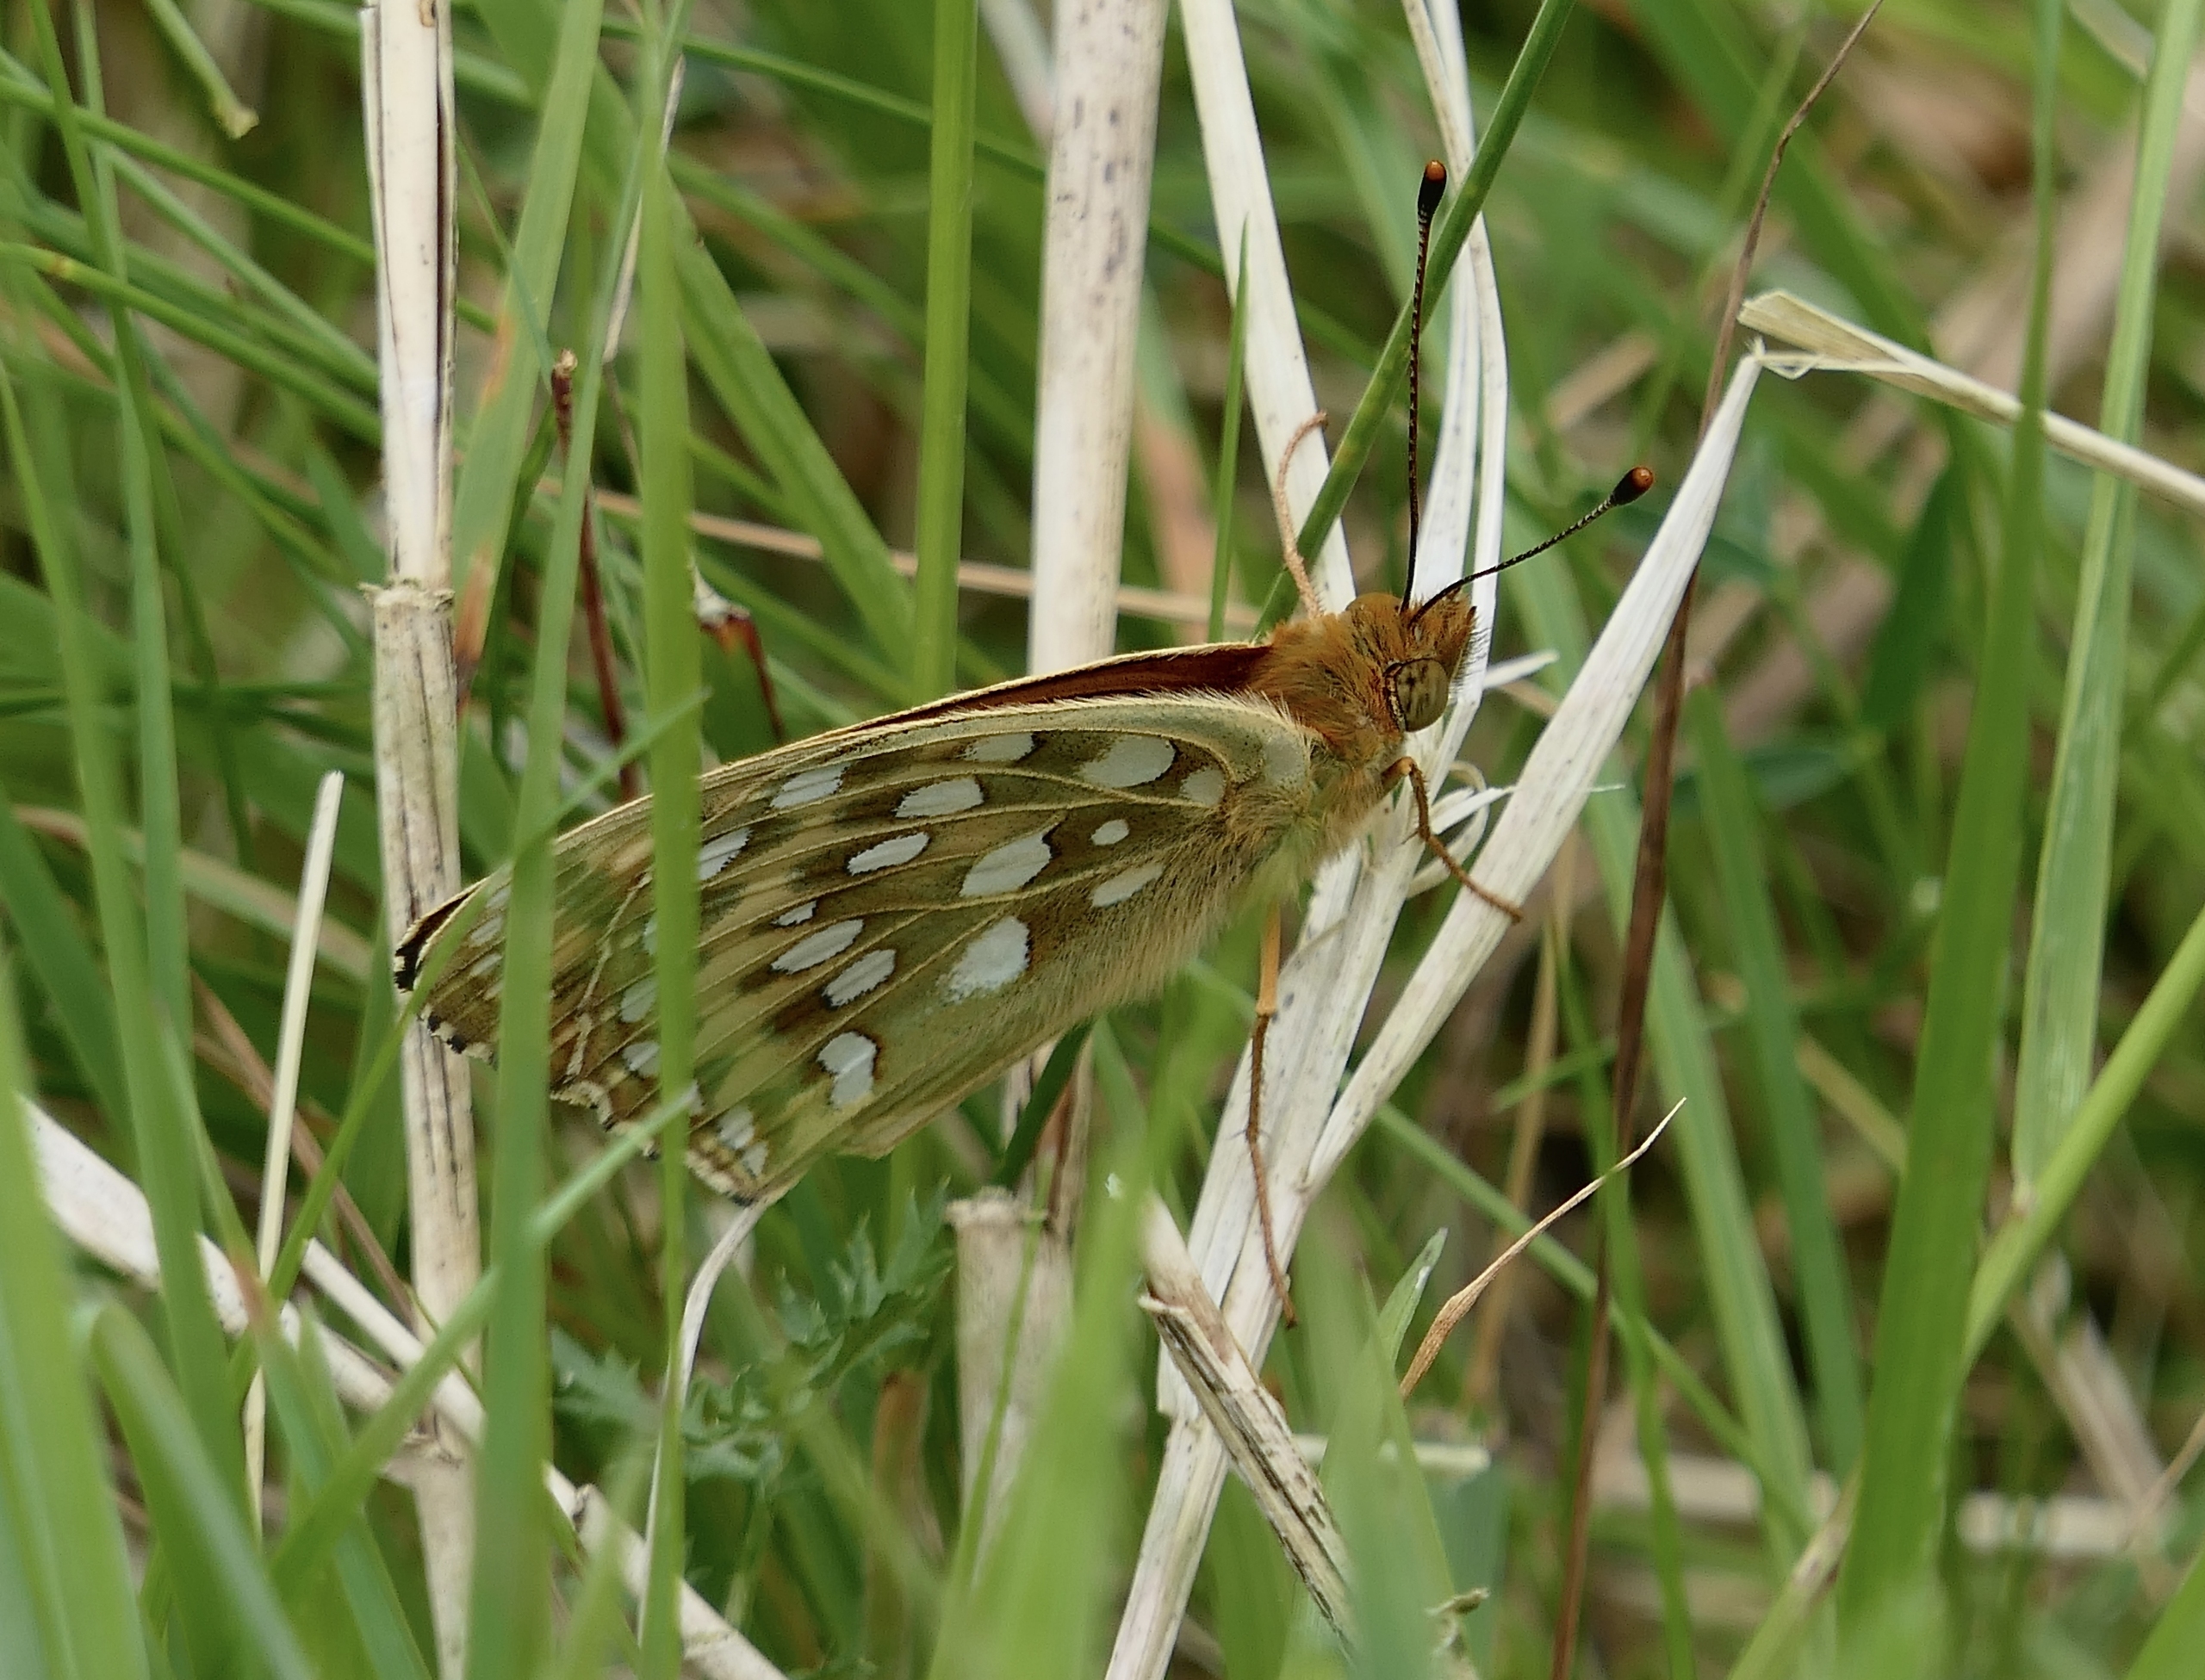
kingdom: Animalia
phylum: Arthropoda
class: Insecta
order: Lepidoptera
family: Nymphalidae
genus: Speyeria
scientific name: Speyeria aglaja
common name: Markperlemorsommerfugl
